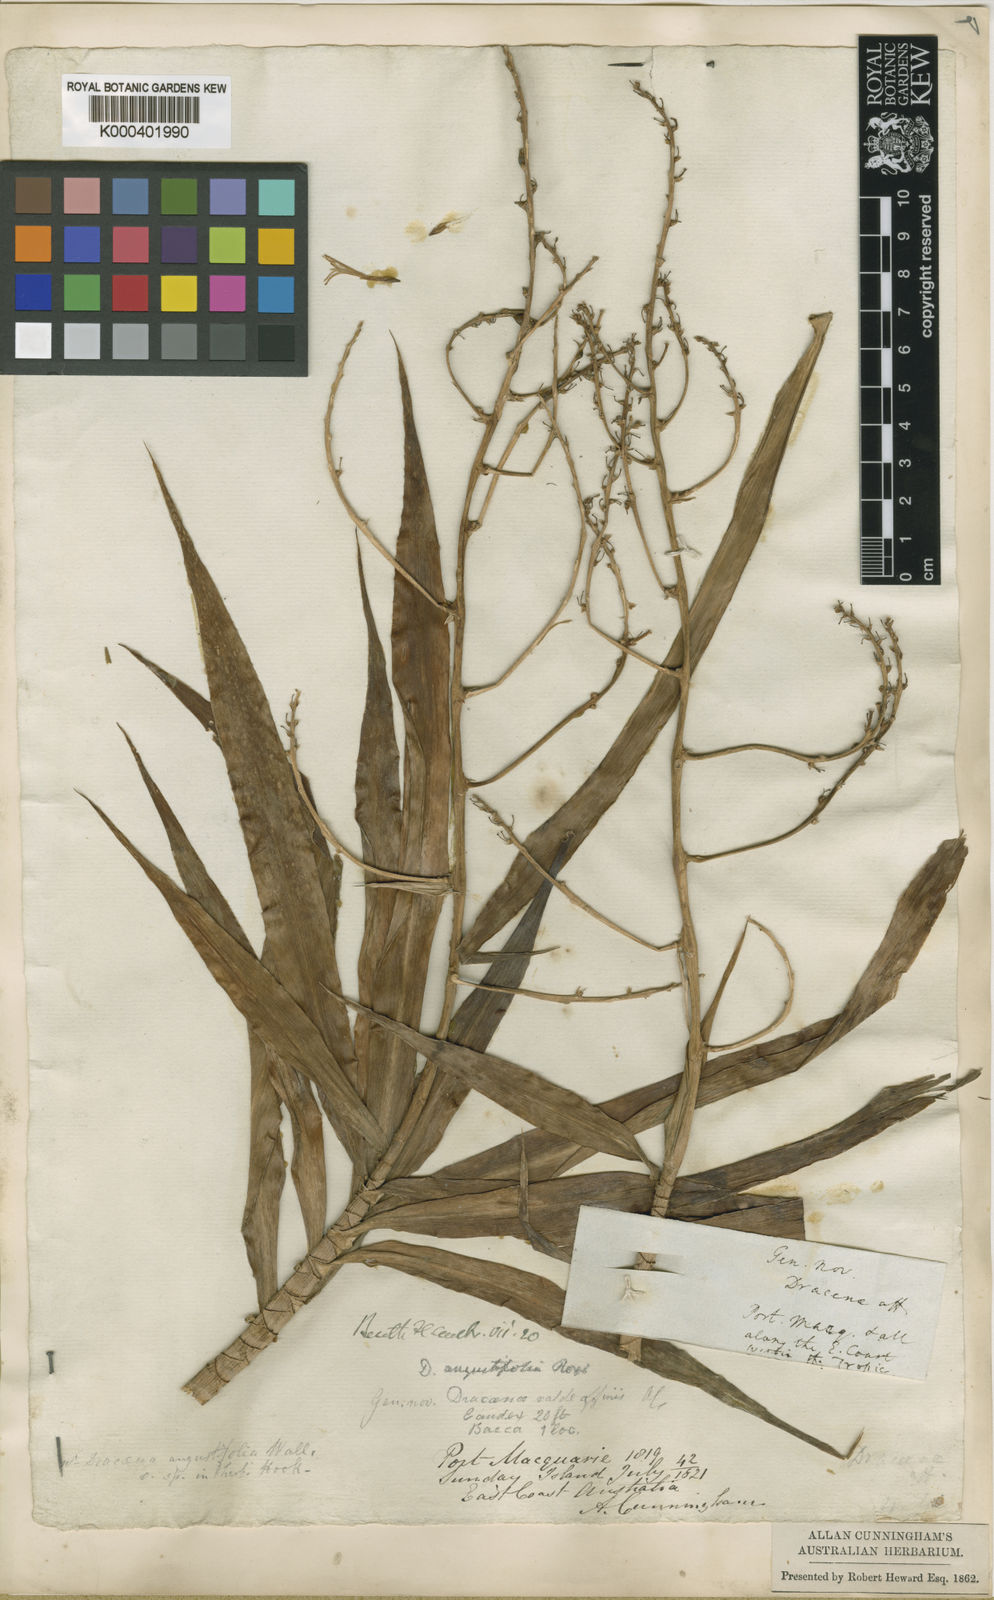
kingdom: Plantae
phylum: Tracheophyta
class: Liliopsida
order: Asparagales
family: Asparagaceae
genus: Dracaena
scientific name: Dracaena angustifolia
